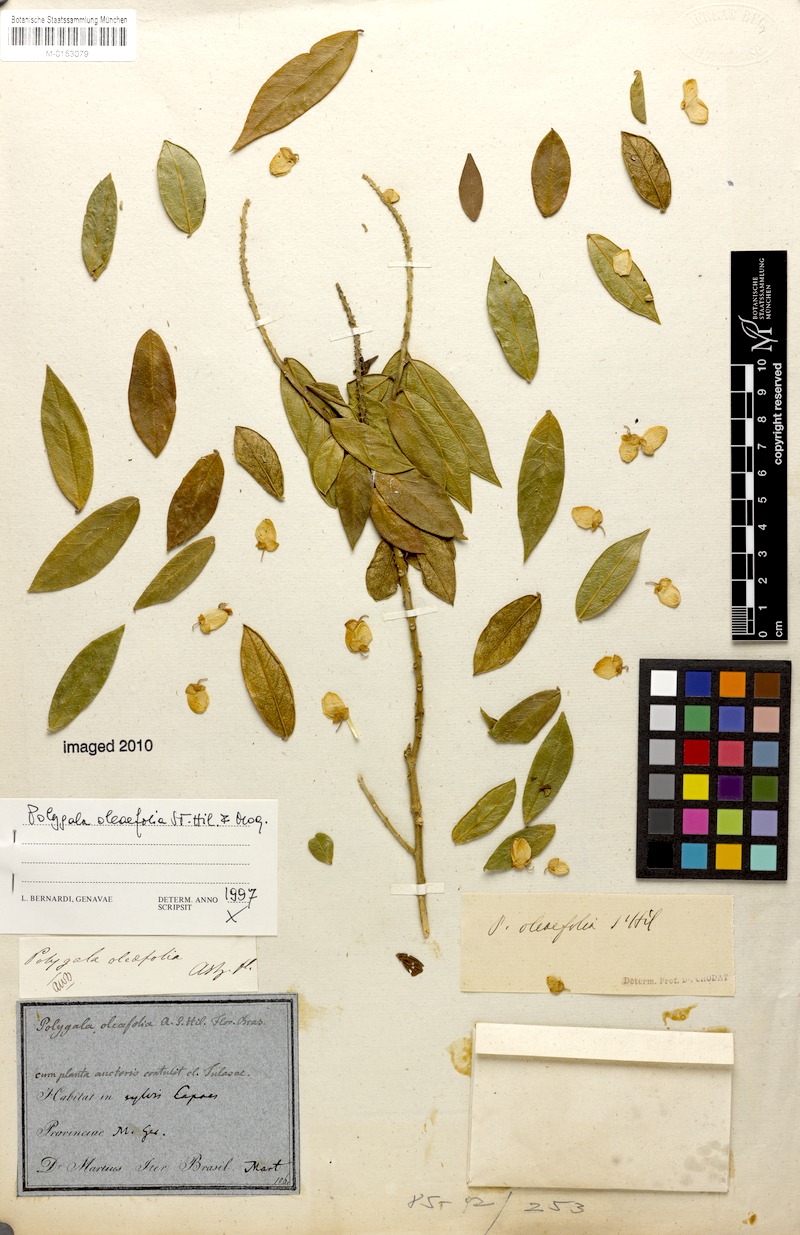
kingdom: Plantae
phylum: Tracheophyta
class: Magnoliopsida
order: Fabales
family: Polygalaceae
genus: Caamembeca
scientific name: Caamembeca oleifolia
